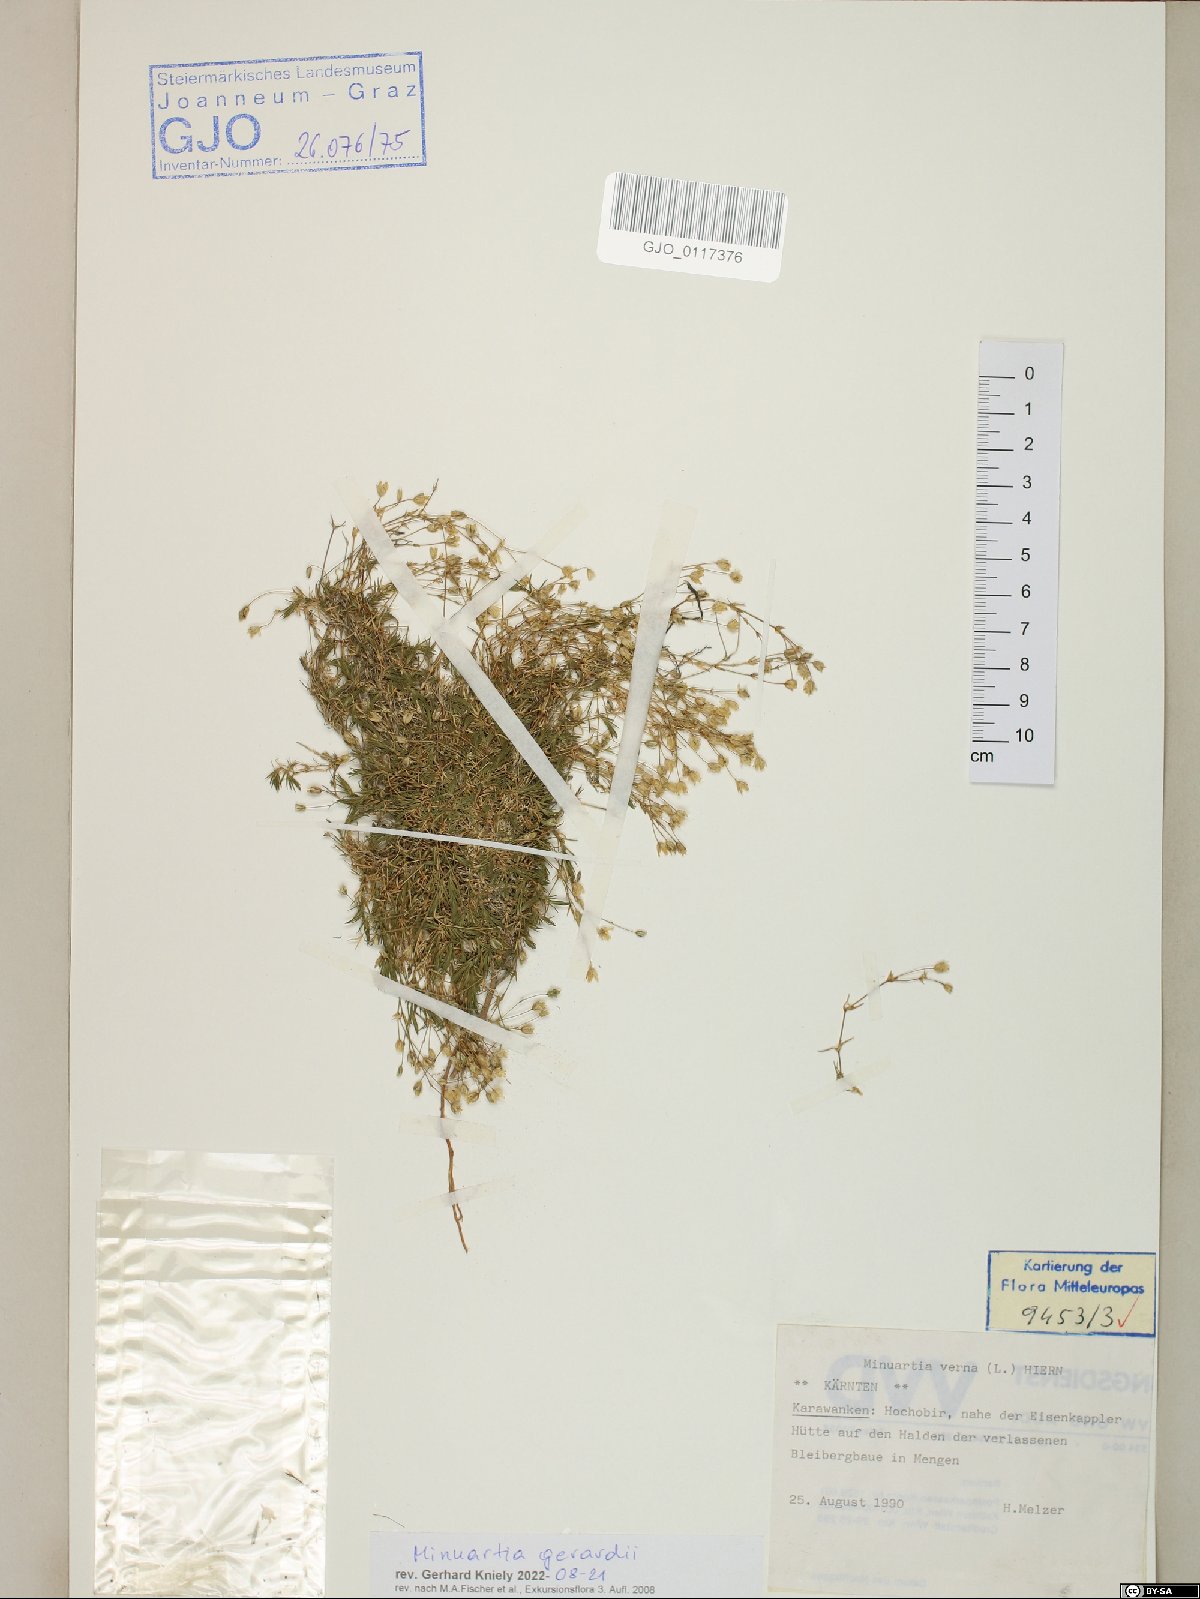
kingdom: Plantae
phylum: Tracheophyta
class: Magnoliopsida
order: Caryophyllales
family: Caryophyllaceae
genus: Sabulina
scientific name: Sabulina verna
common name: Spring sandwort
